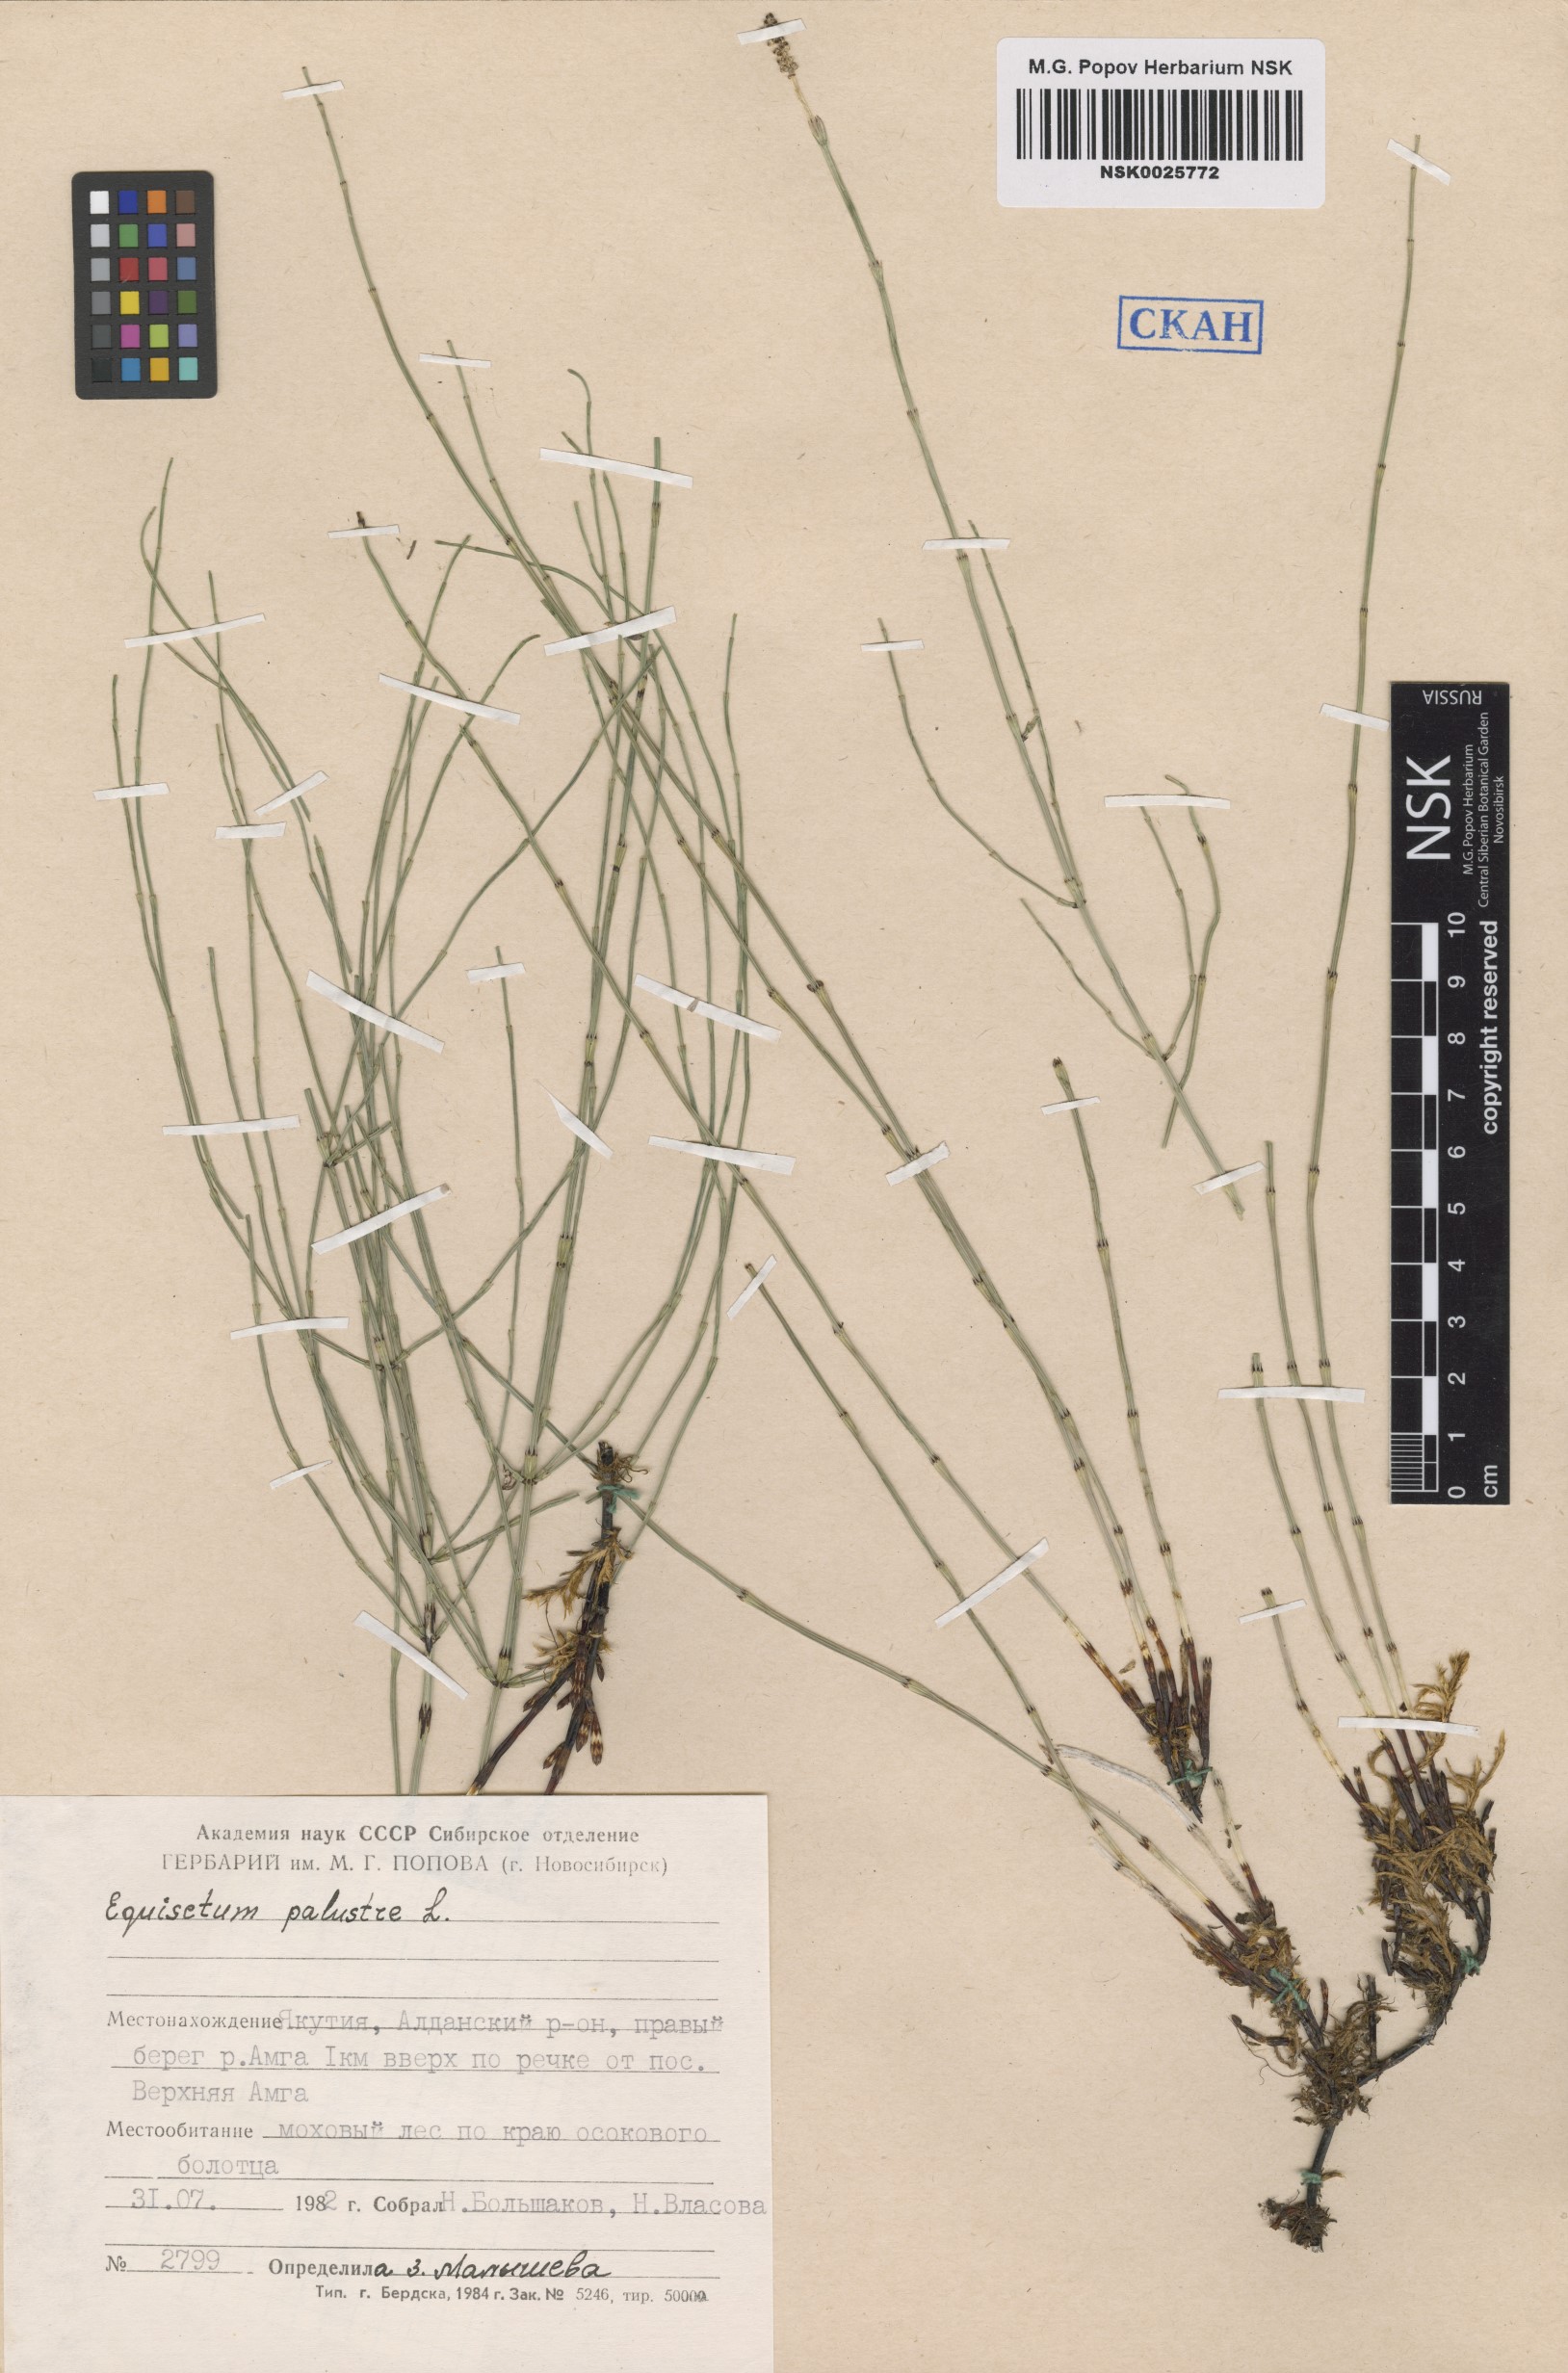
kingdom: Plantae
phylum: Tracheophyta
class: Polypodiopsida
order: Equisetales
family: Equisetaceae
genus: Equisetum
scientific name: Equisetum palustre
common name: Marsh horsetail
